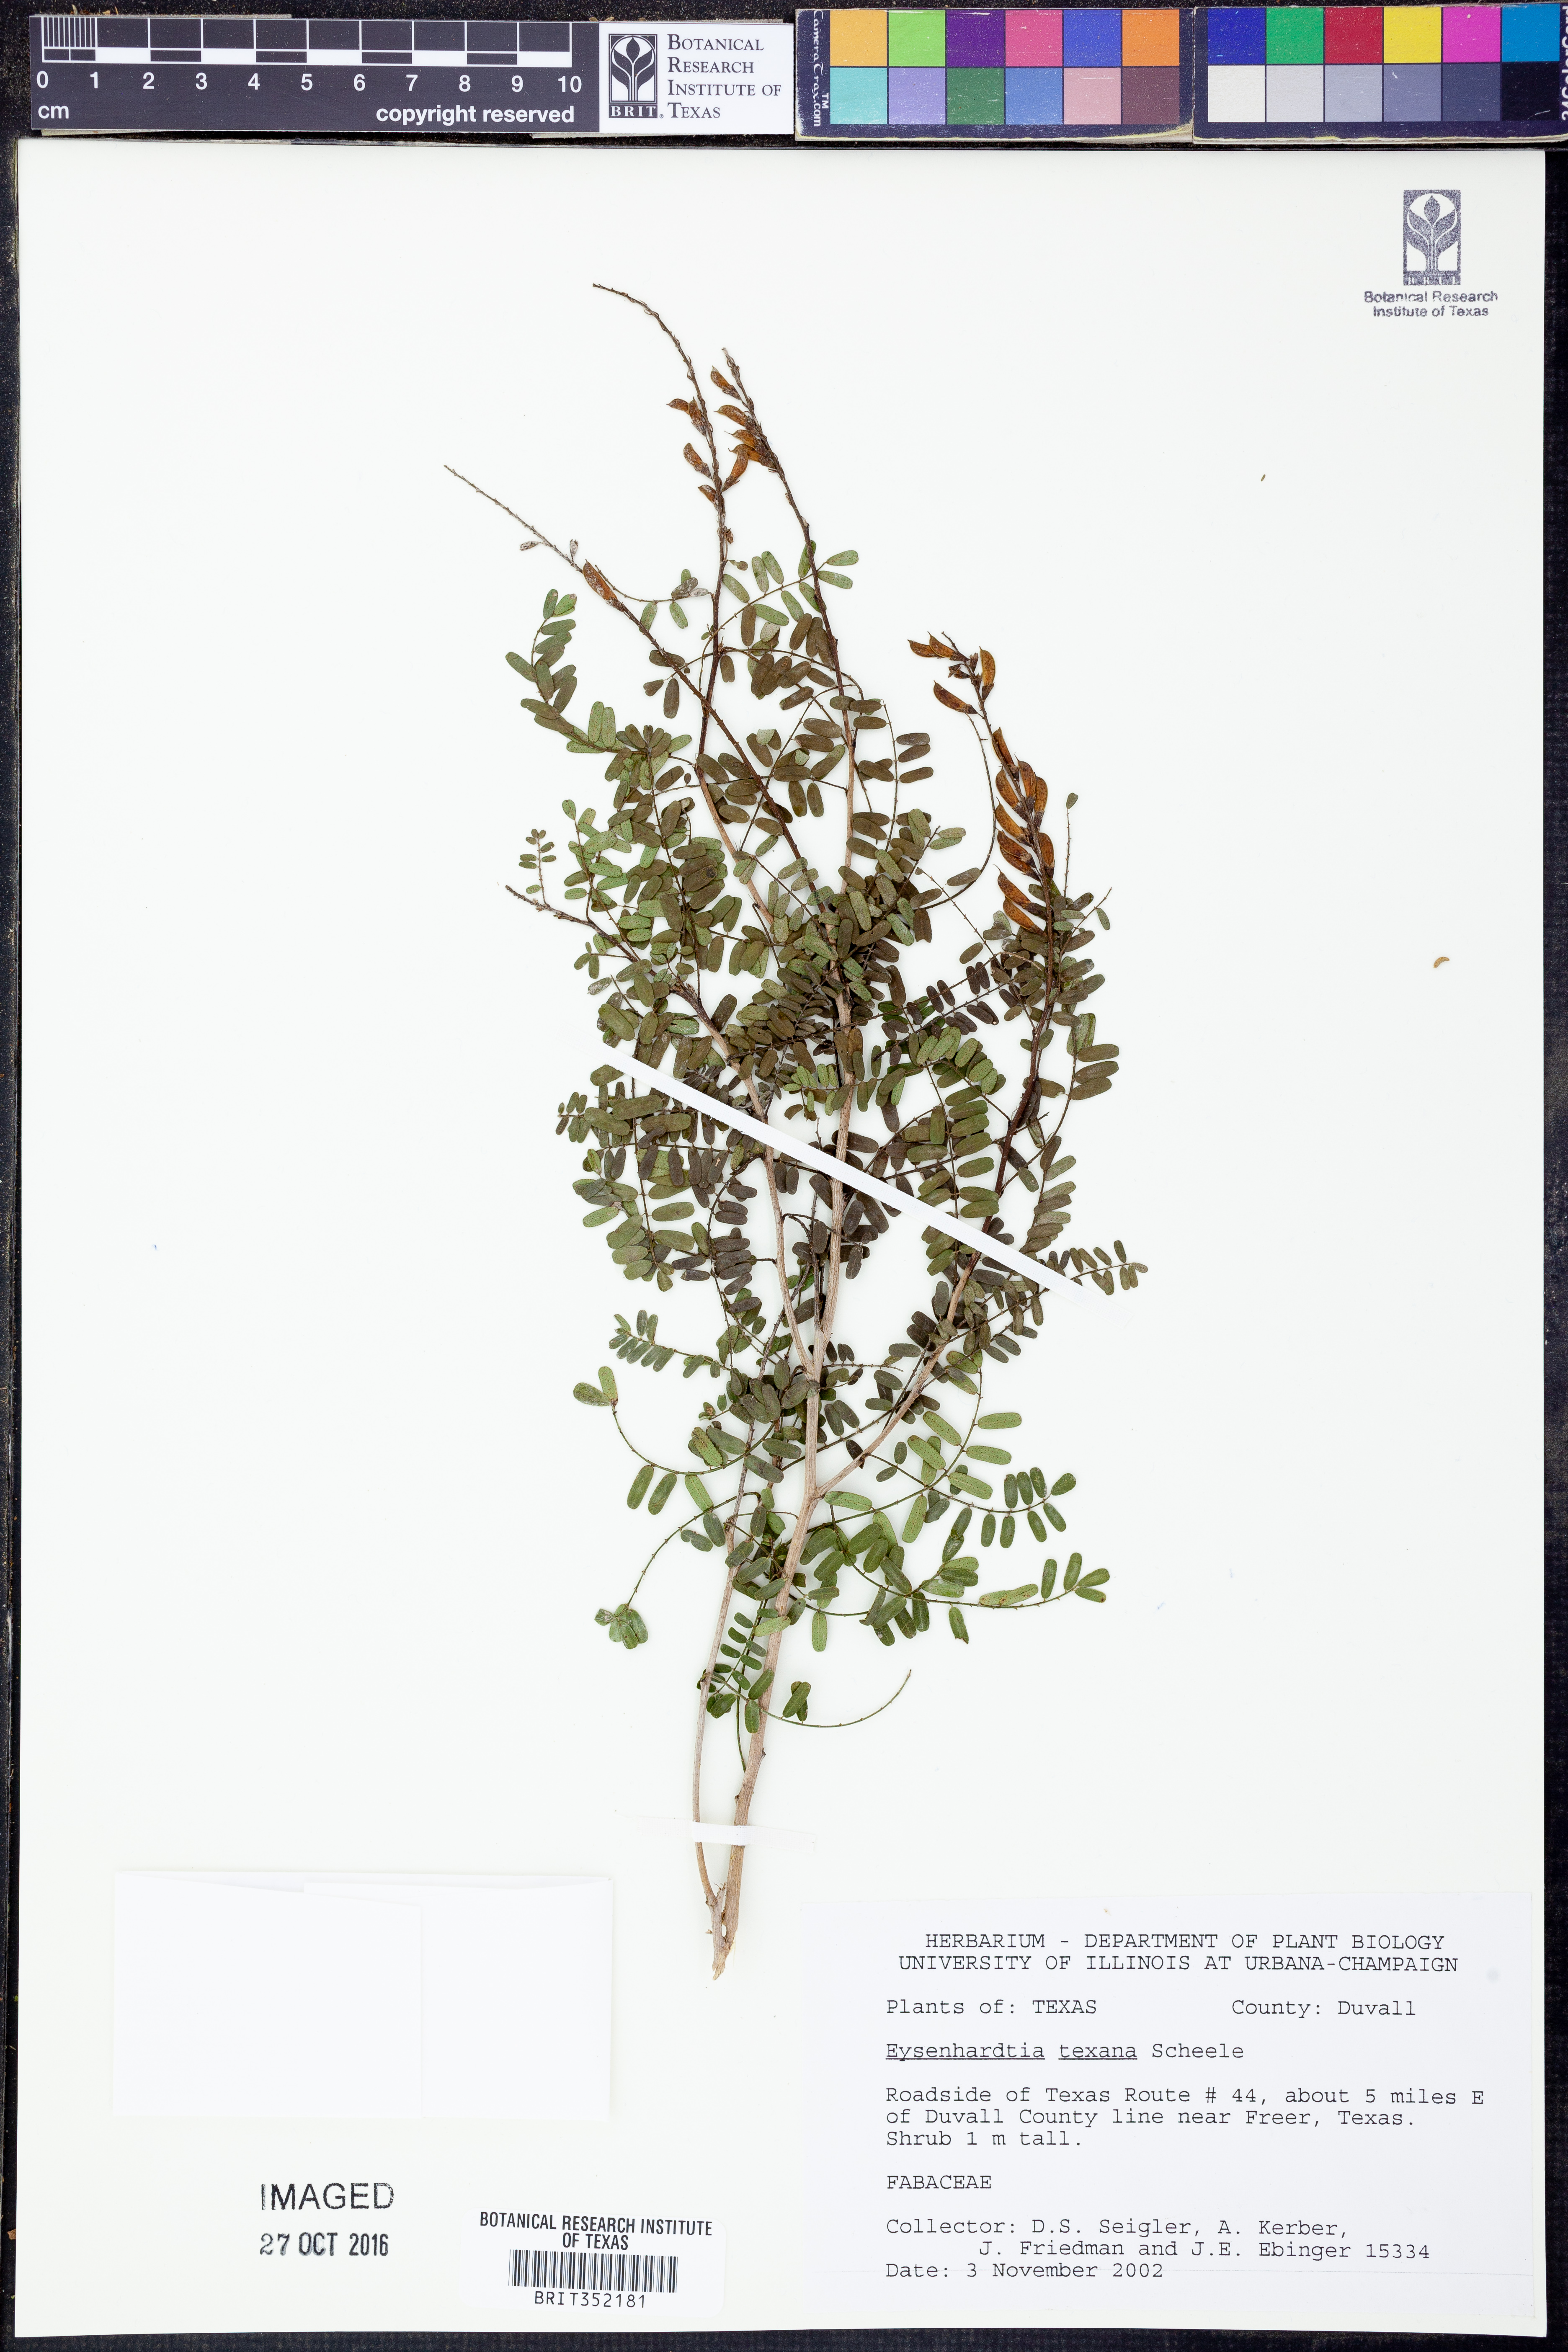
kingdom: Plantae
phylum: Tracheophyta
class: Magnoliopsida
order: Fabales
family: Fabaceae
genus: Eysenhardtia
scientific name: Eysenhardtia texana
